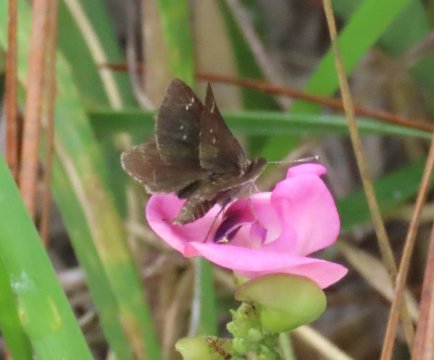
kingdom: Animalia
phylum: Arthropoda
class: Insecta
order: Lepidoptera
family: Hesperiidae
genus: Mastor
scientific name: Mastor alternata
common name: Dusky Roadside-Skipper
